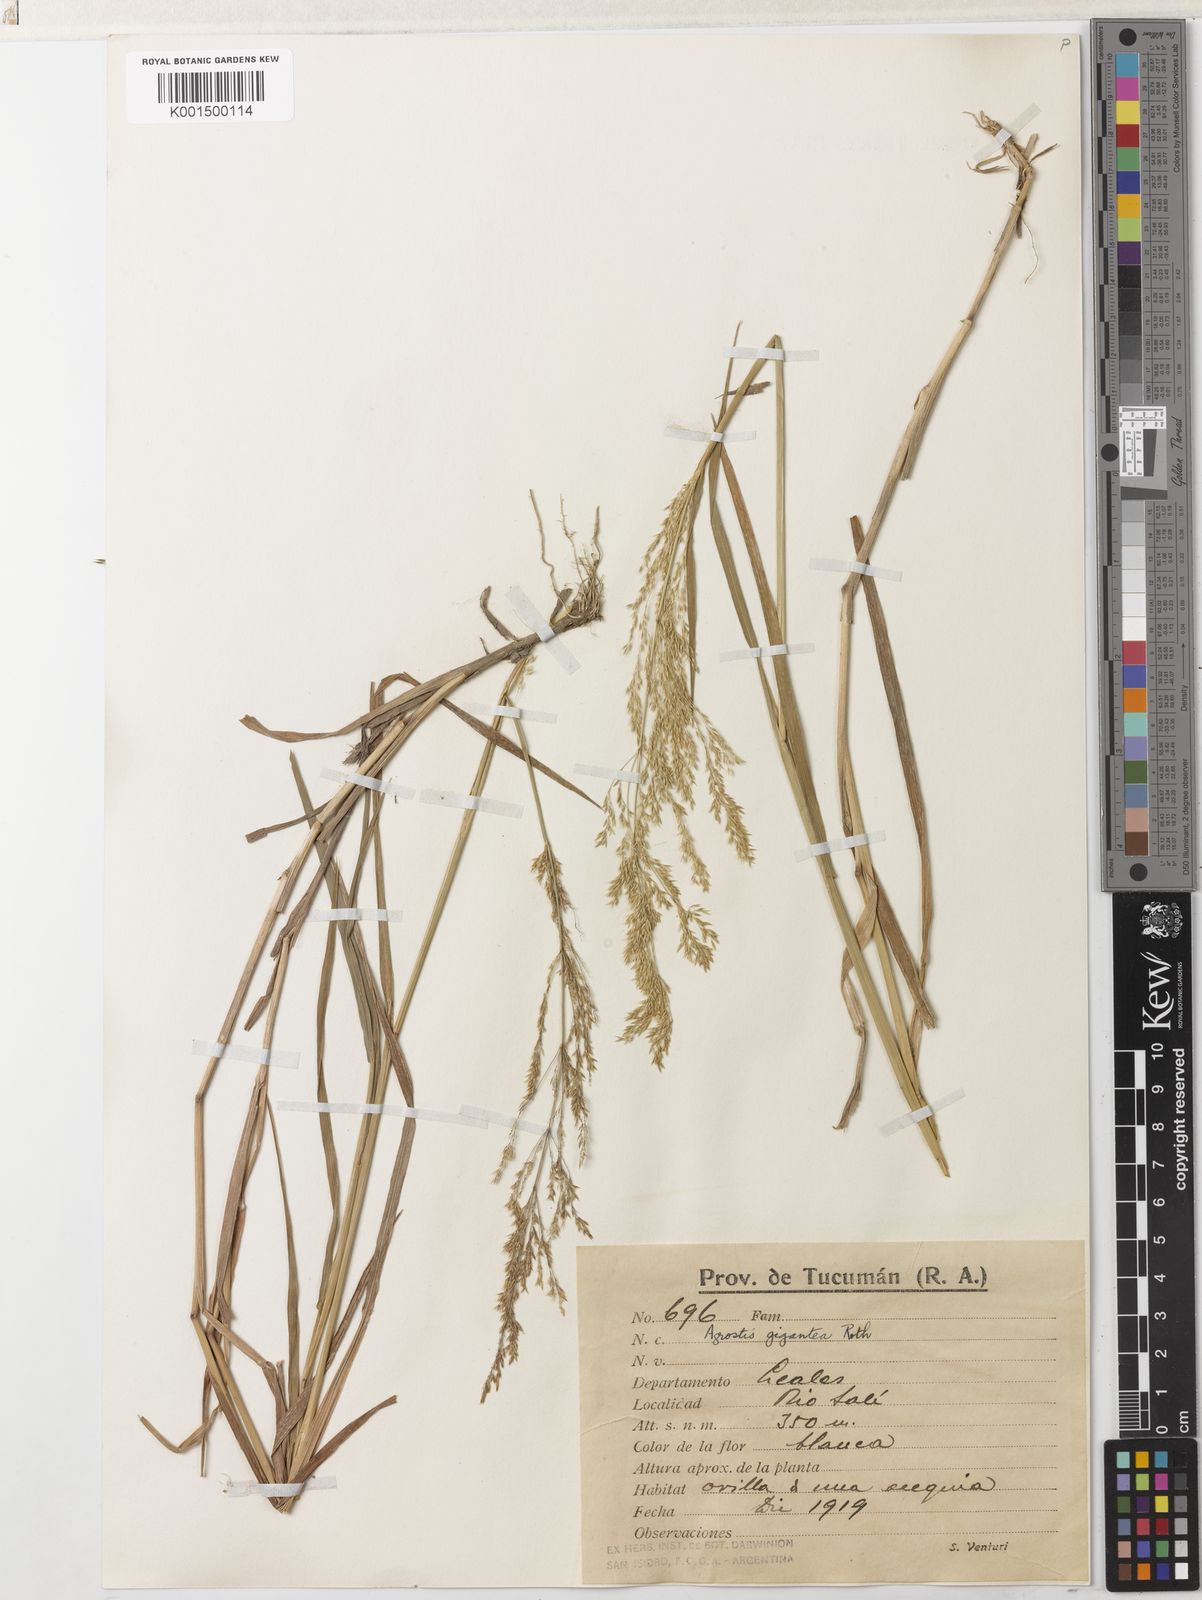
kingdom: Plantae
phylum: Tracheophyta
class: Liliopsida
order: Poales
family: Poaceae
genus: Agrostis
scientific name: Agrostis gigantea
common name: Black bent
